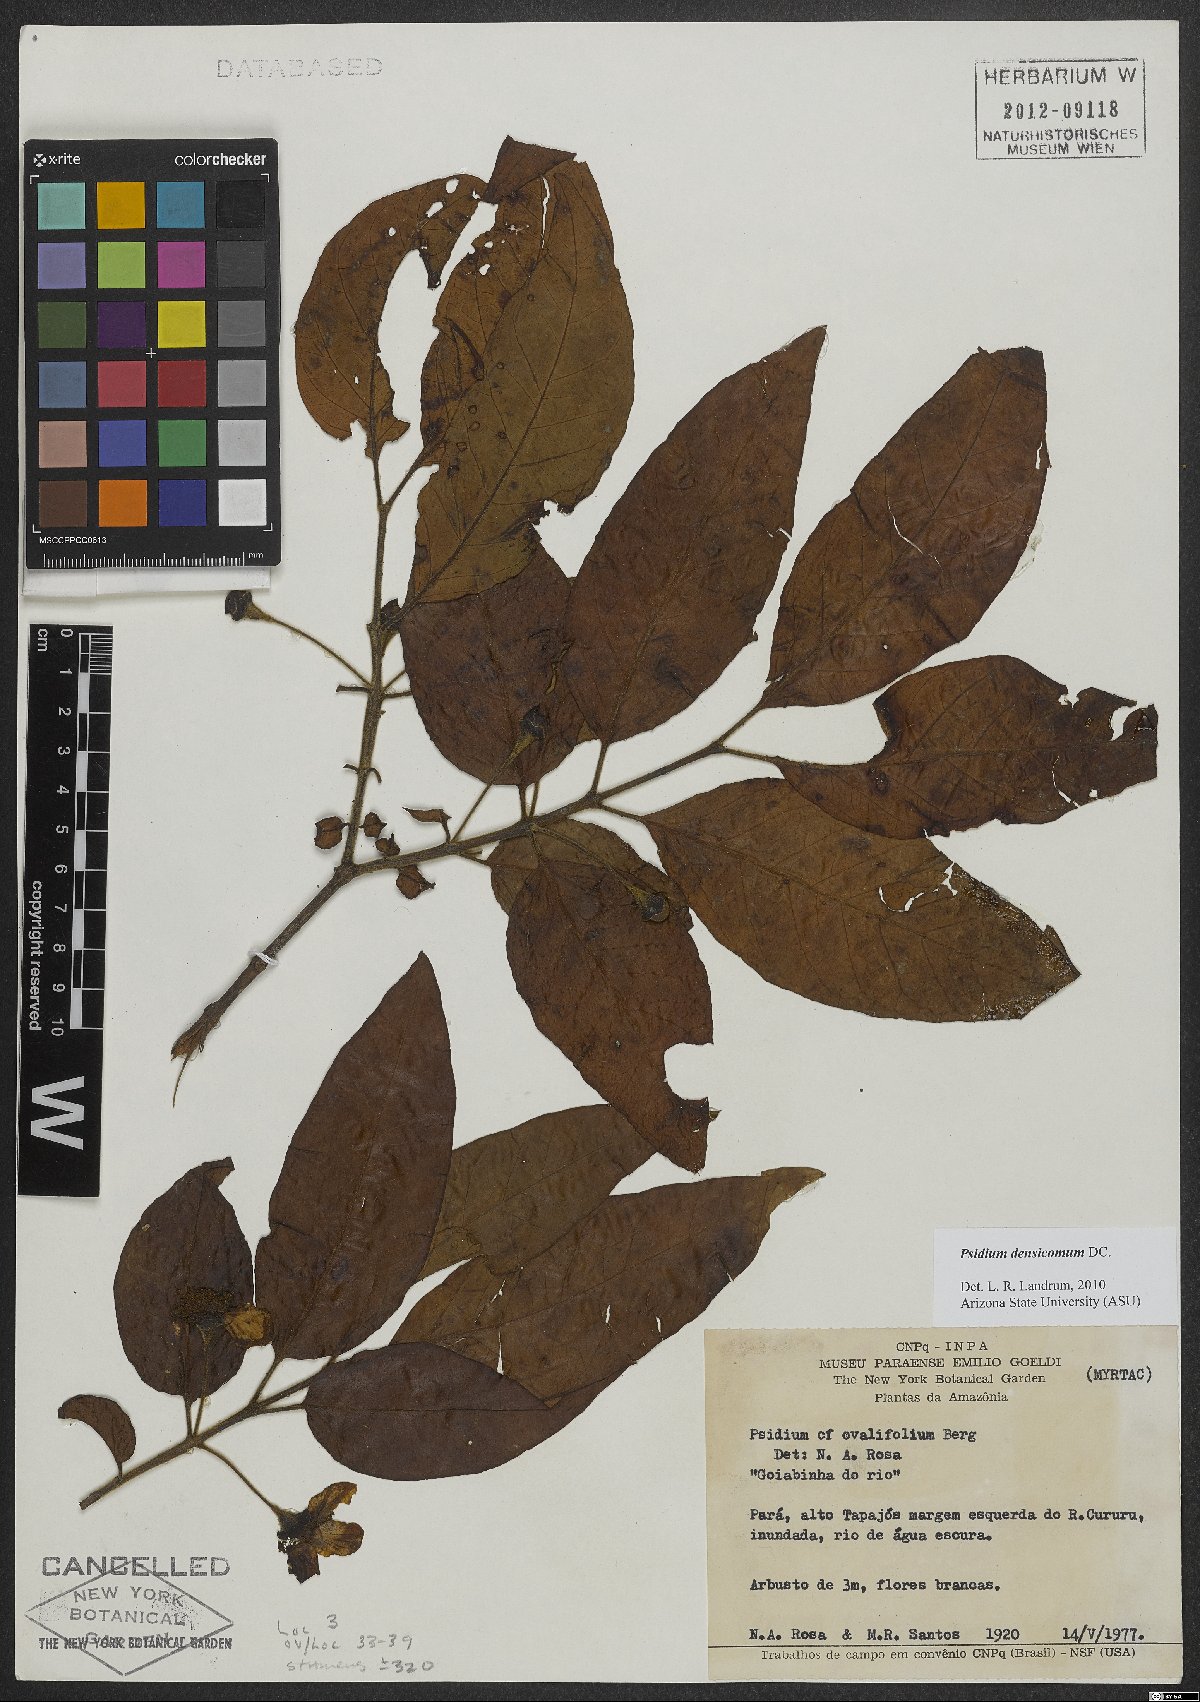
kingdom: Plantae
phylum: Tracheophyta
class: Magnoliopsida
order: Myrtales
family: Myrtaceae
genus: Psidium
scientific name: Psidium densicomum
